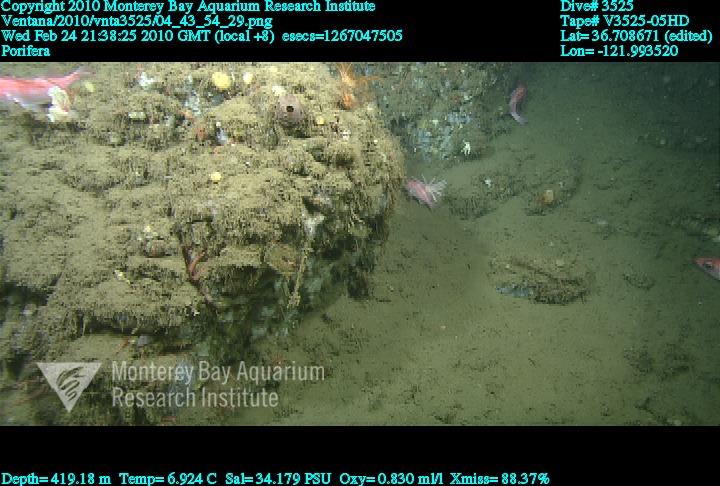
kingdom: Animalia
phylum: Porifera
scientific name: Porifera
